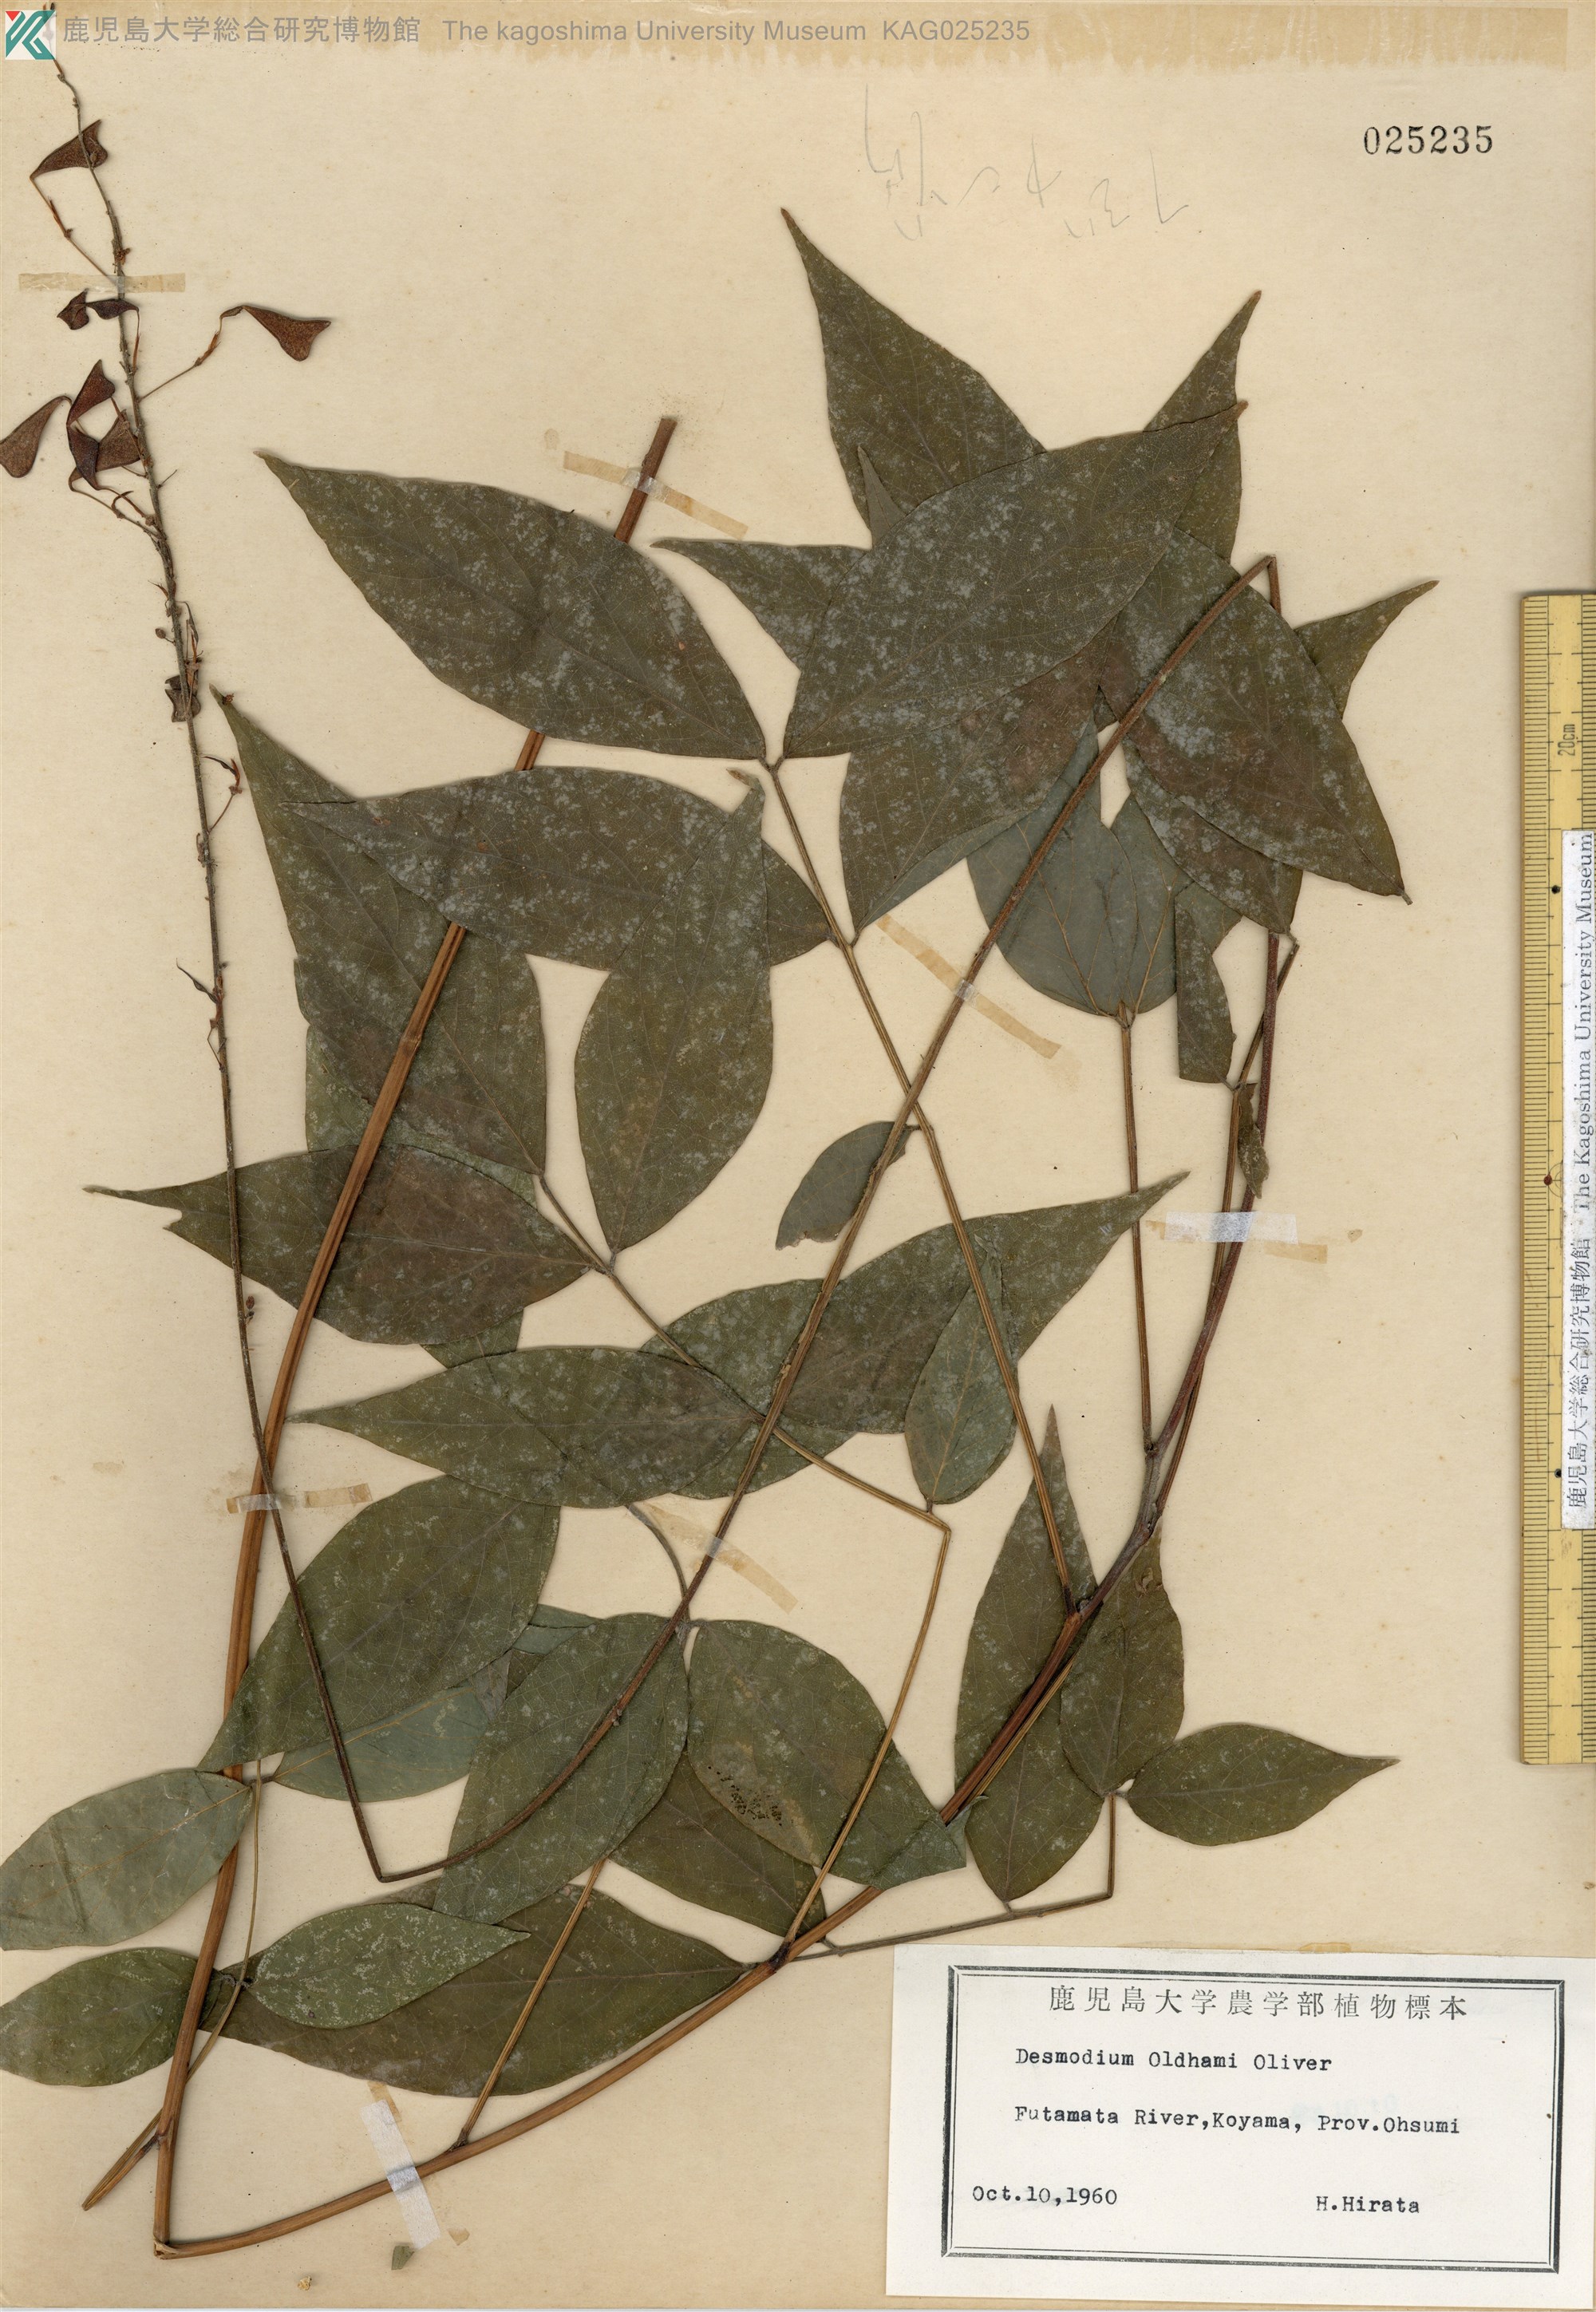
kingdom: Plantae
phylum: Tracheophyta
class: Magnoliopsida
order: Fabales
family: Fabaceae
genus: Hylodesmum
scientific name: Hylodesmum oldhamii
